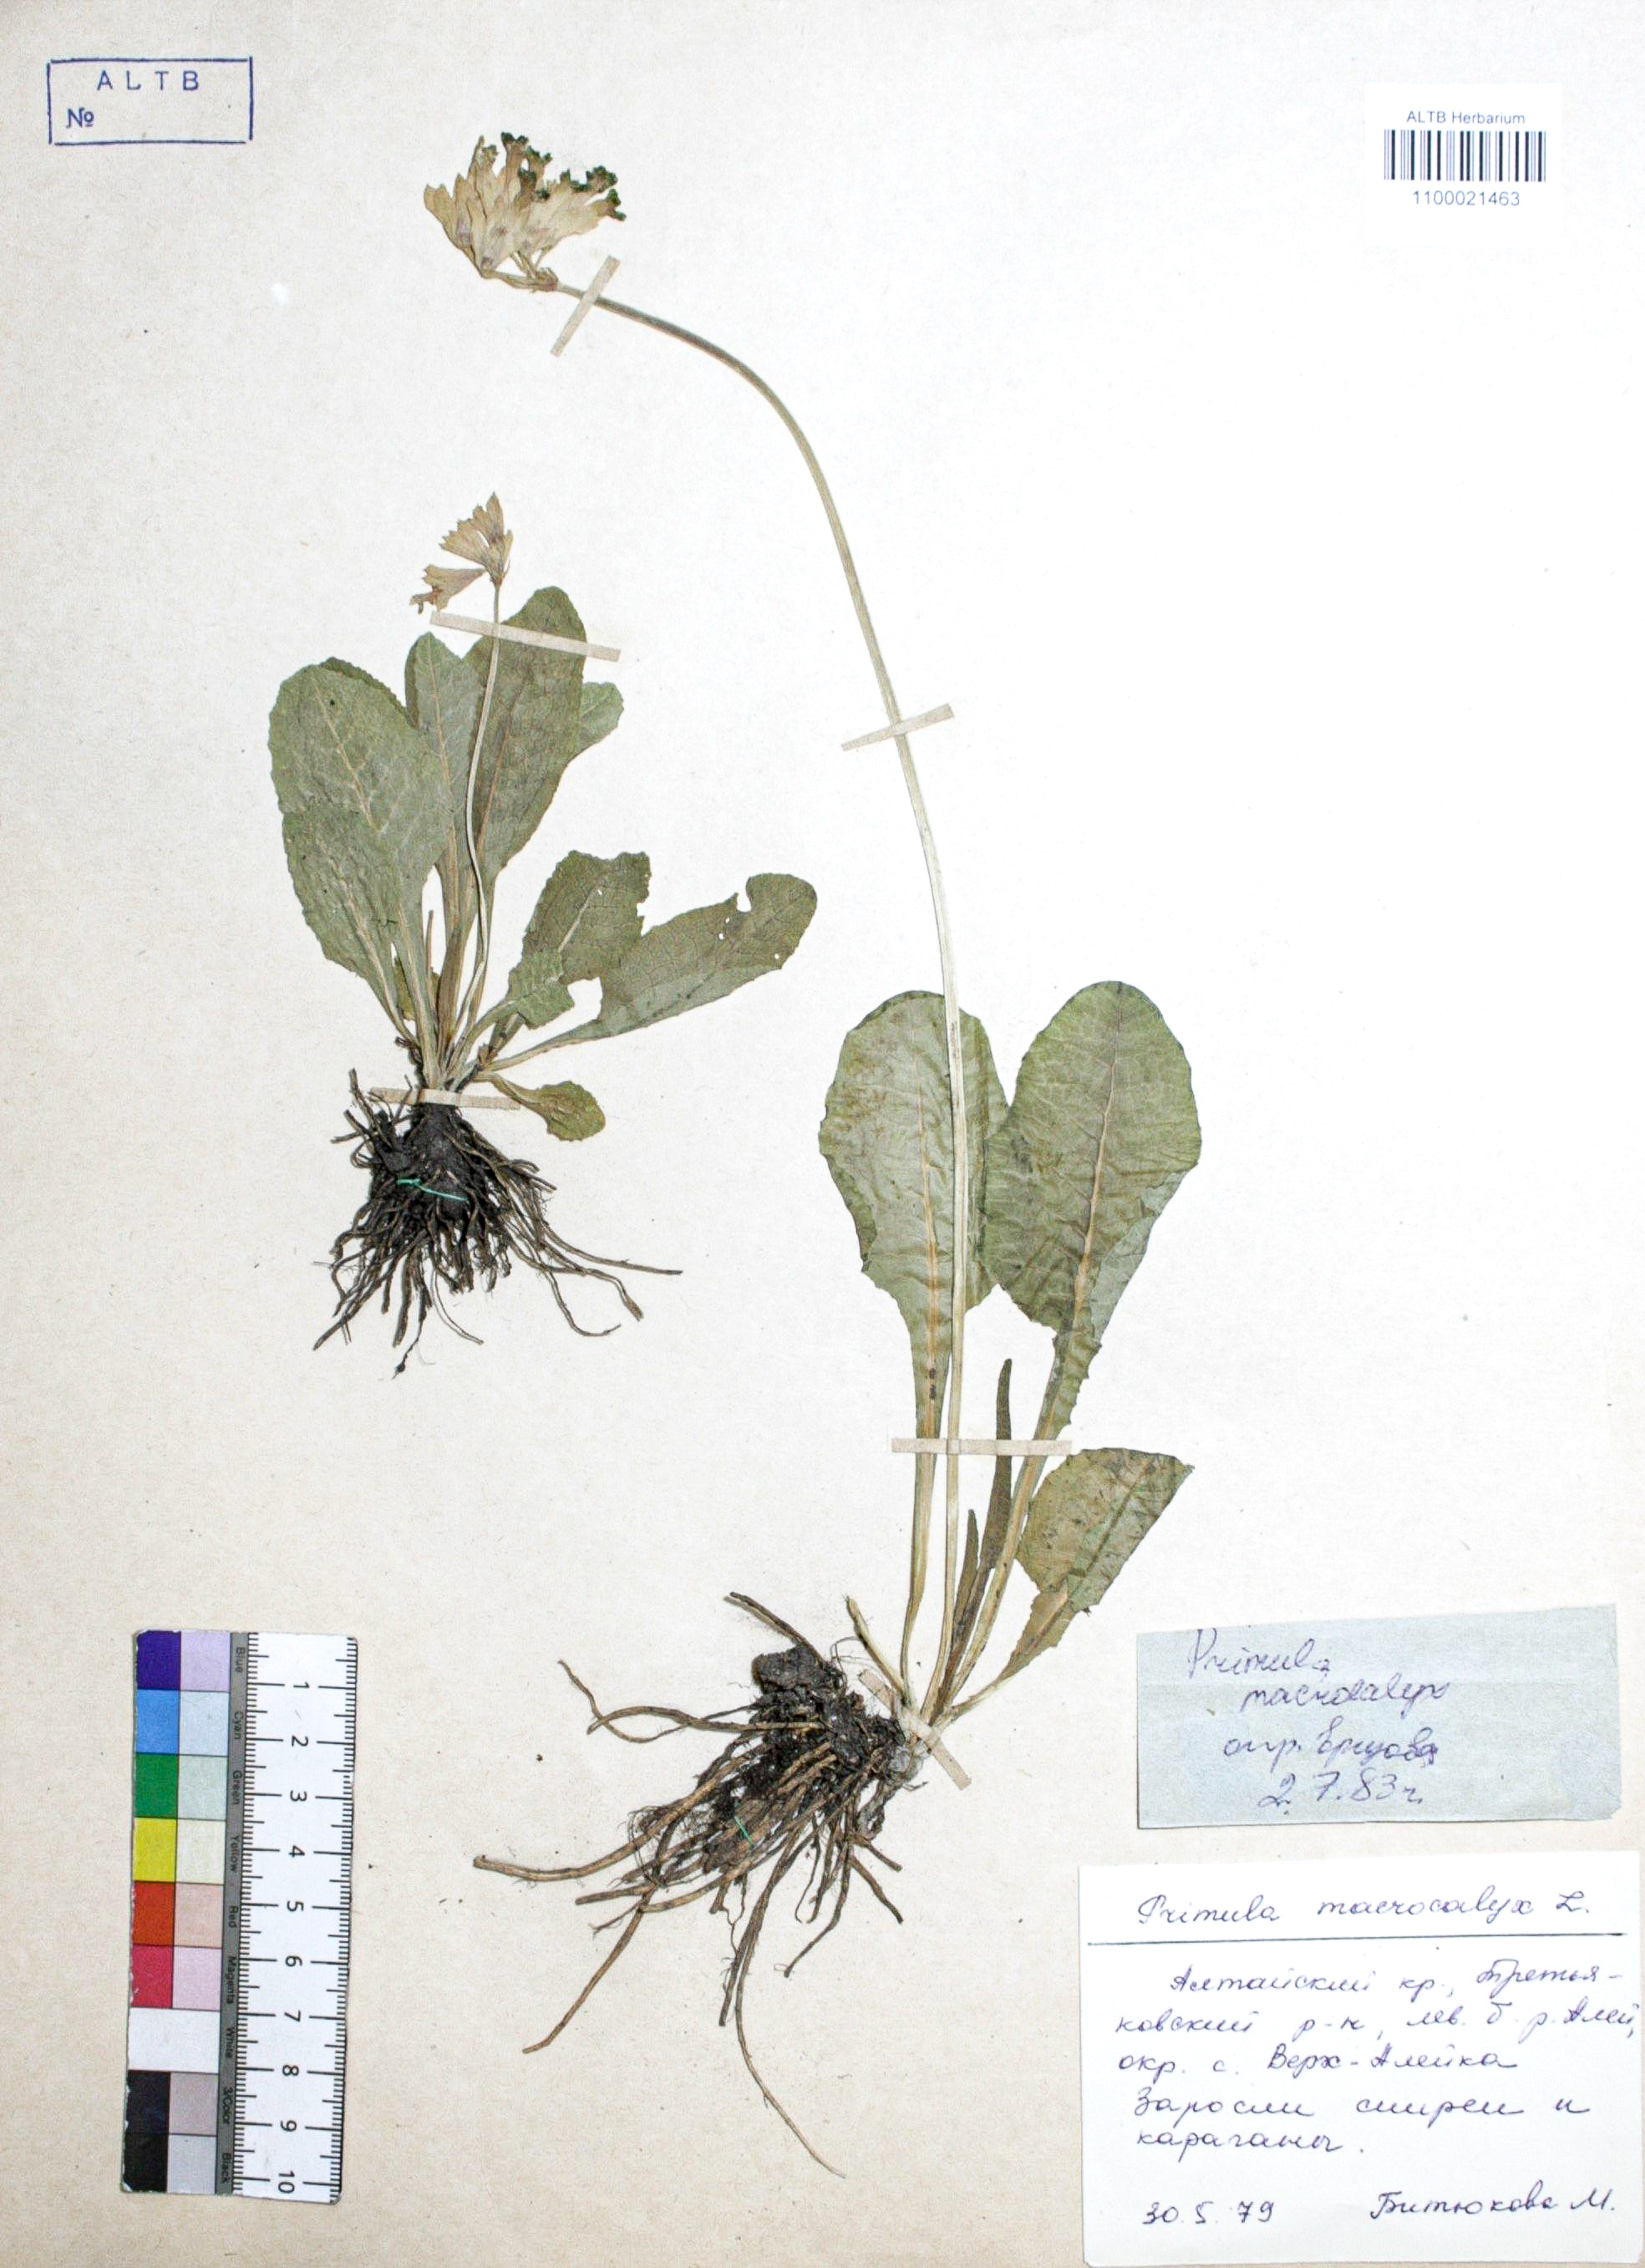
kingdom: Plantae
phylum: Tracheophyta
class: Magnoliopsida
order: Ericales
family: Primulaceae
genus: Primula
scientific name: Primula veris
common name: Cowslip
